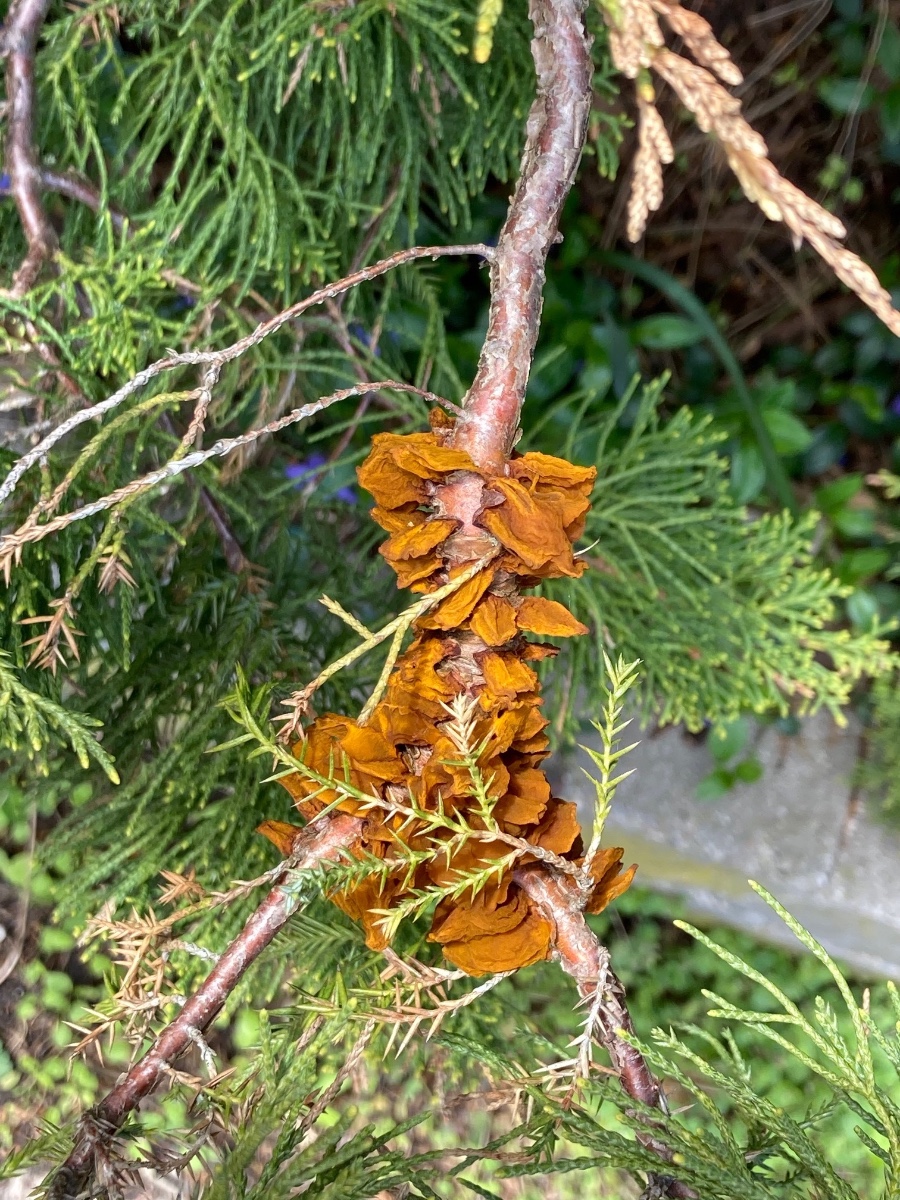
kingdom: Fungi
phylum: Basidiomycota
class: Pucciniomycetes
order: Pucciniales
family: Gymnosporangiaceae
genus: Gymnosporangium
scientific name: Gymnosporangium sabinae
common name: pæregitter-bævrerust
